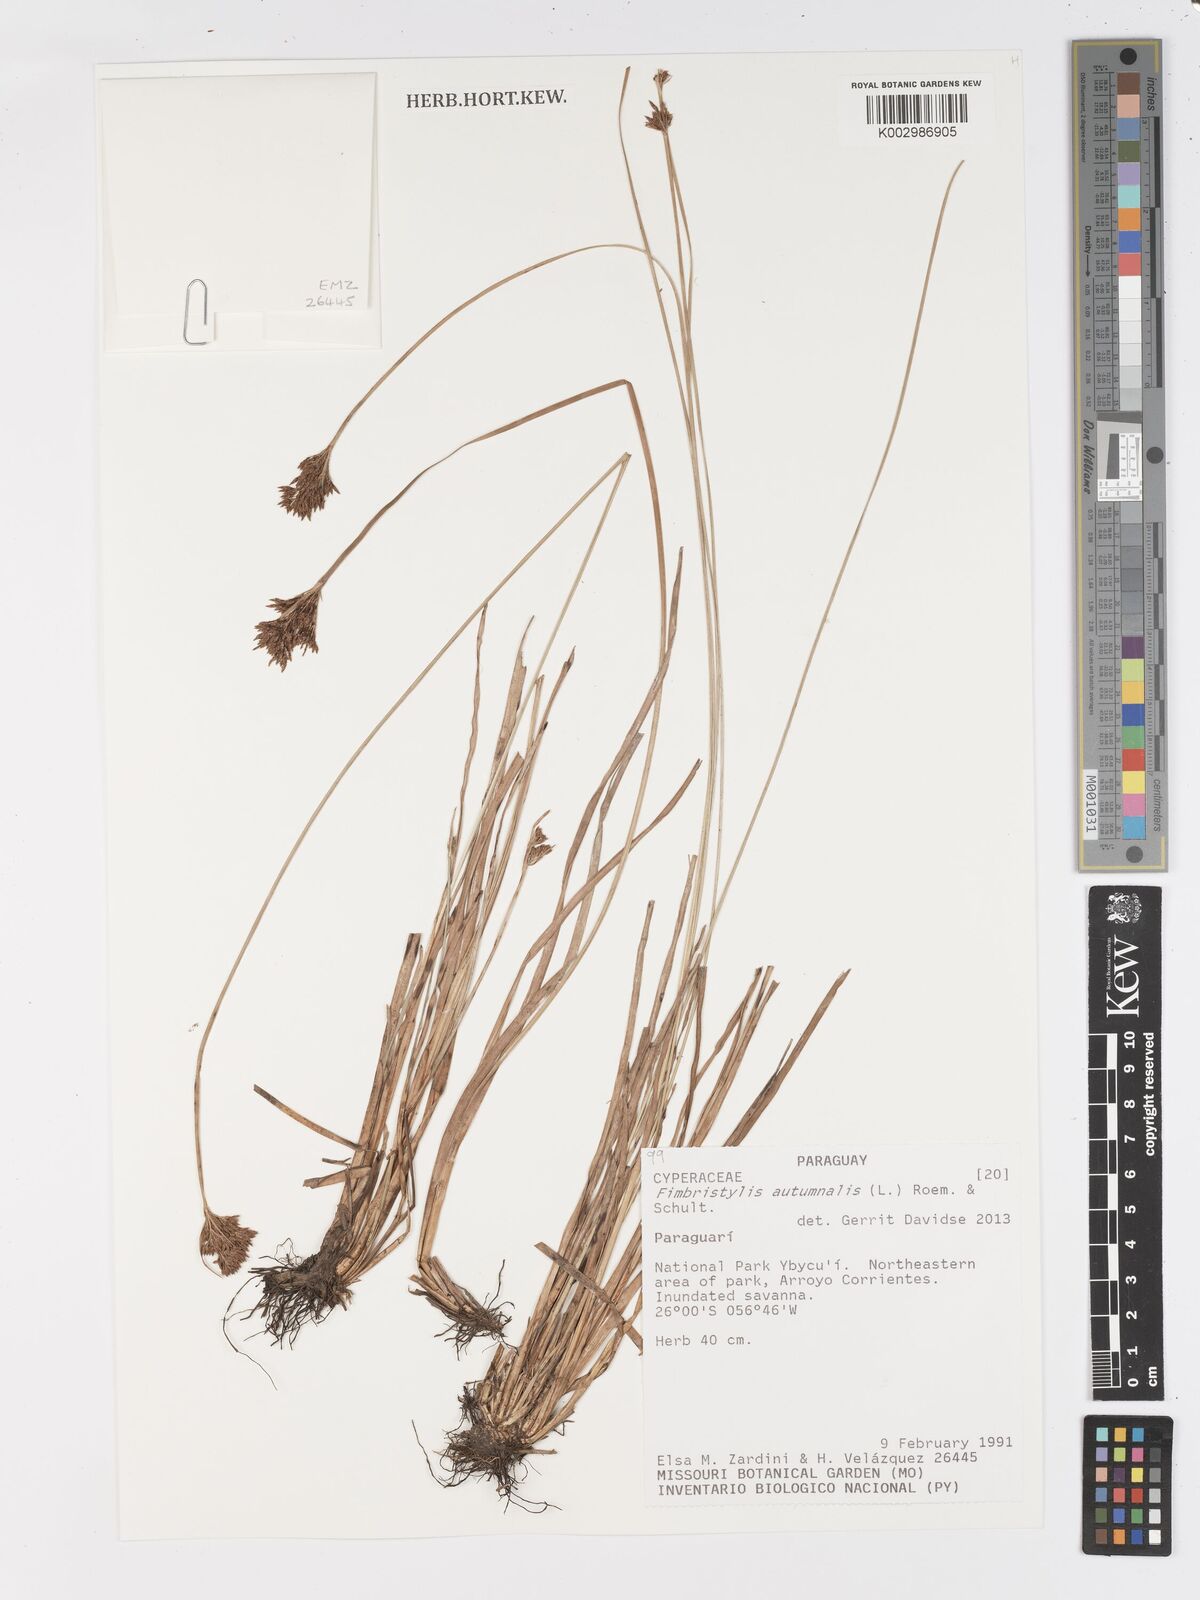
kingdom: Plantae
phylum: Tracheophyta
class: Liliopsida
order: Poales
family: Cyperaceae
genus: Fimbristylis
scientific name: Fimbristylis autumnalis
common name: Slender fimbristylis
